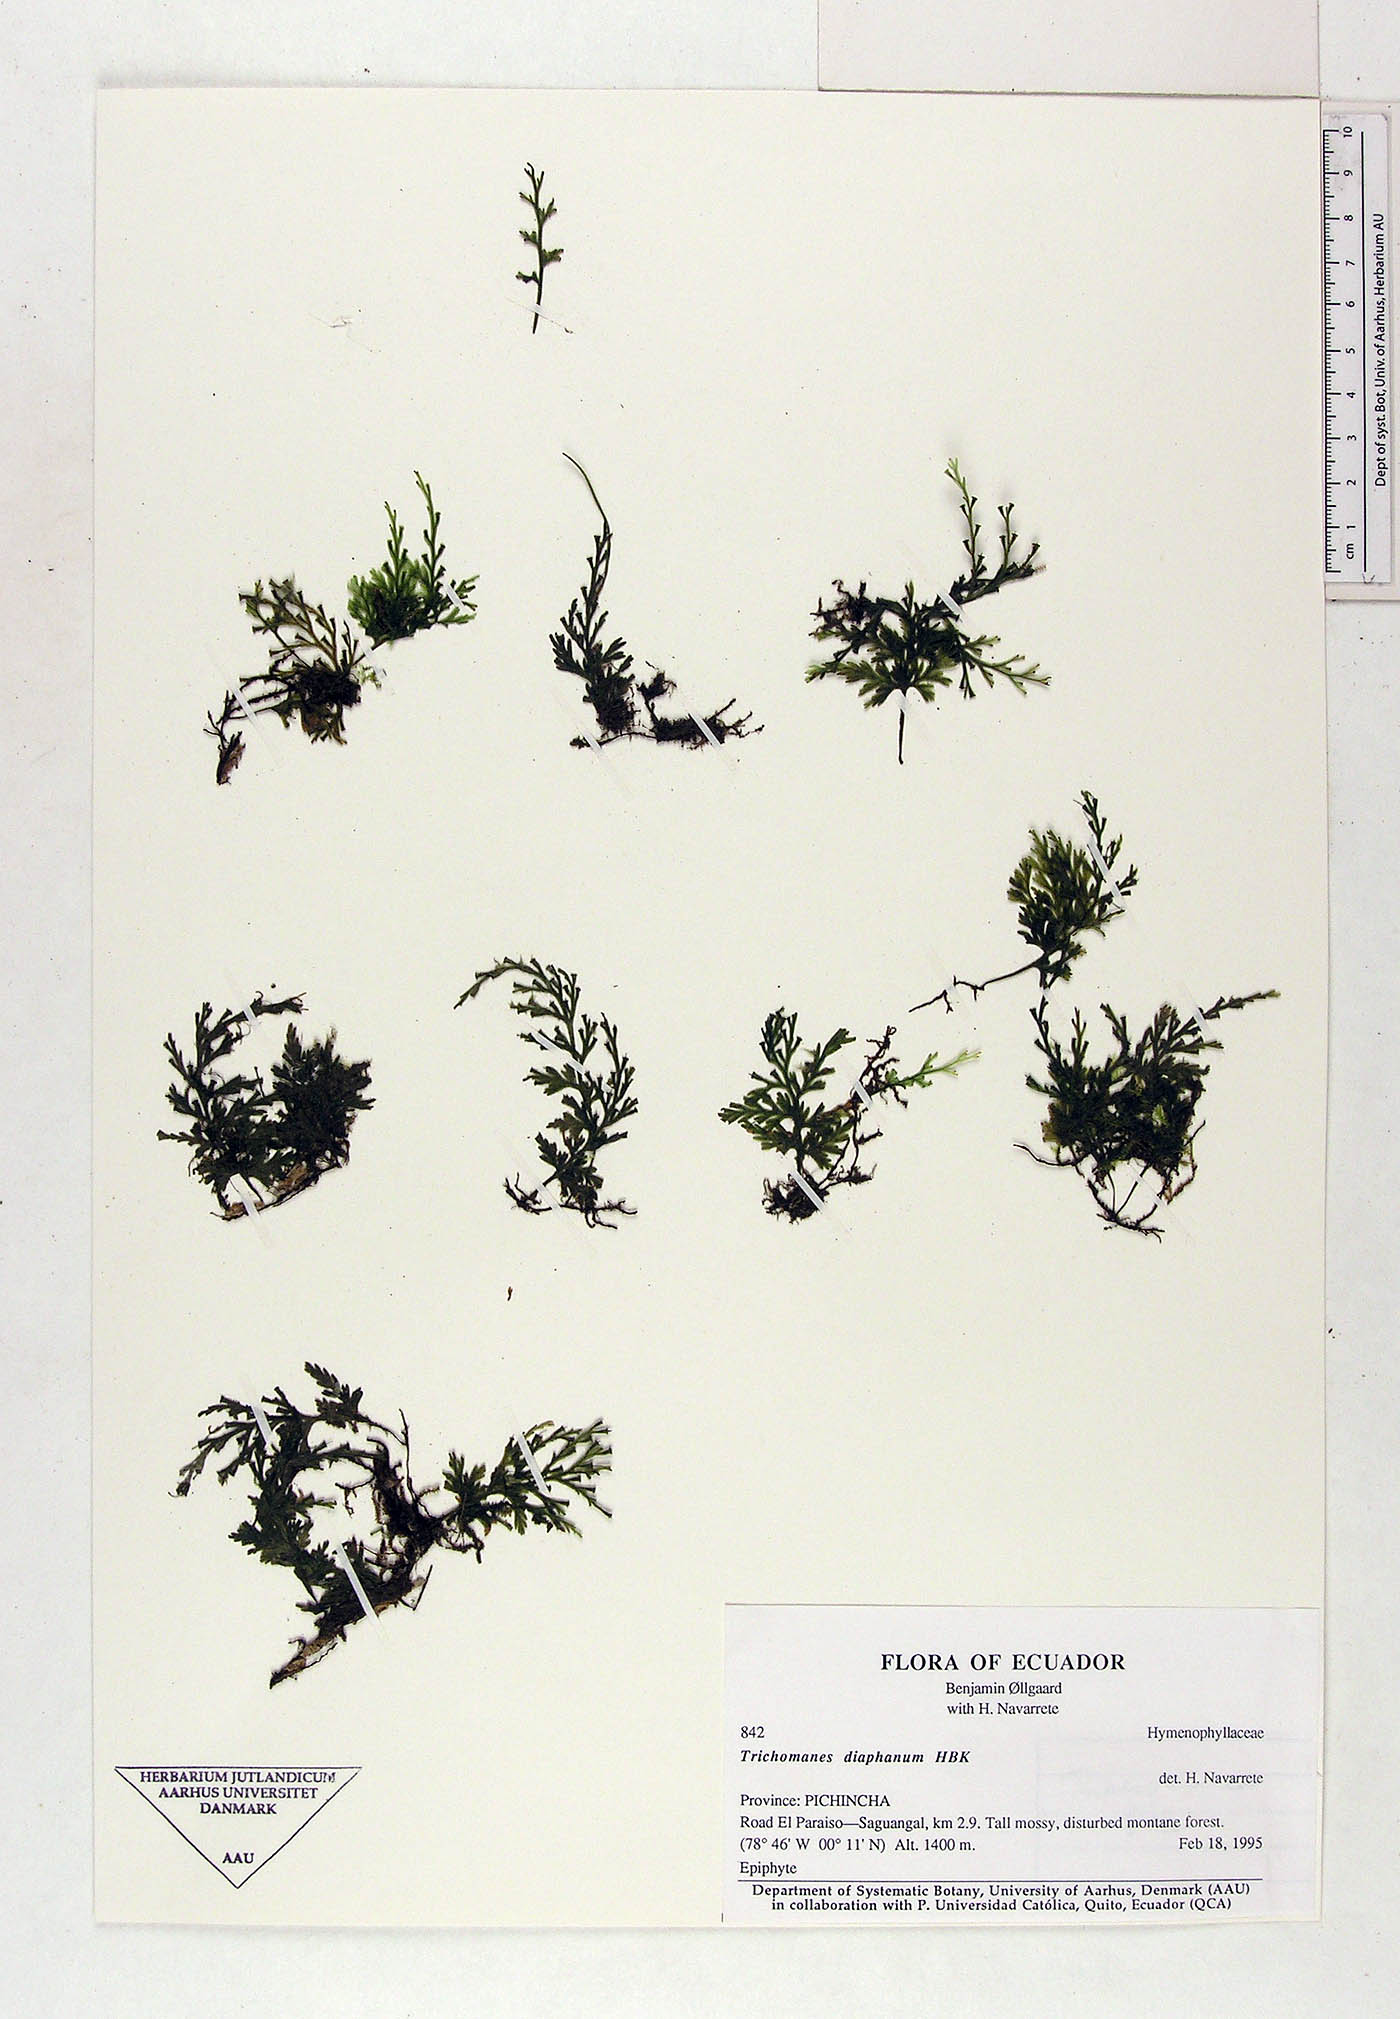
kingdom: Plantae
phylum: Tracheophyta
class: Polypodiopsida
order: Hymenophyllales
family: Hymenophyllaceae
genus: Trichomanes
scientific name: Trichomanes
